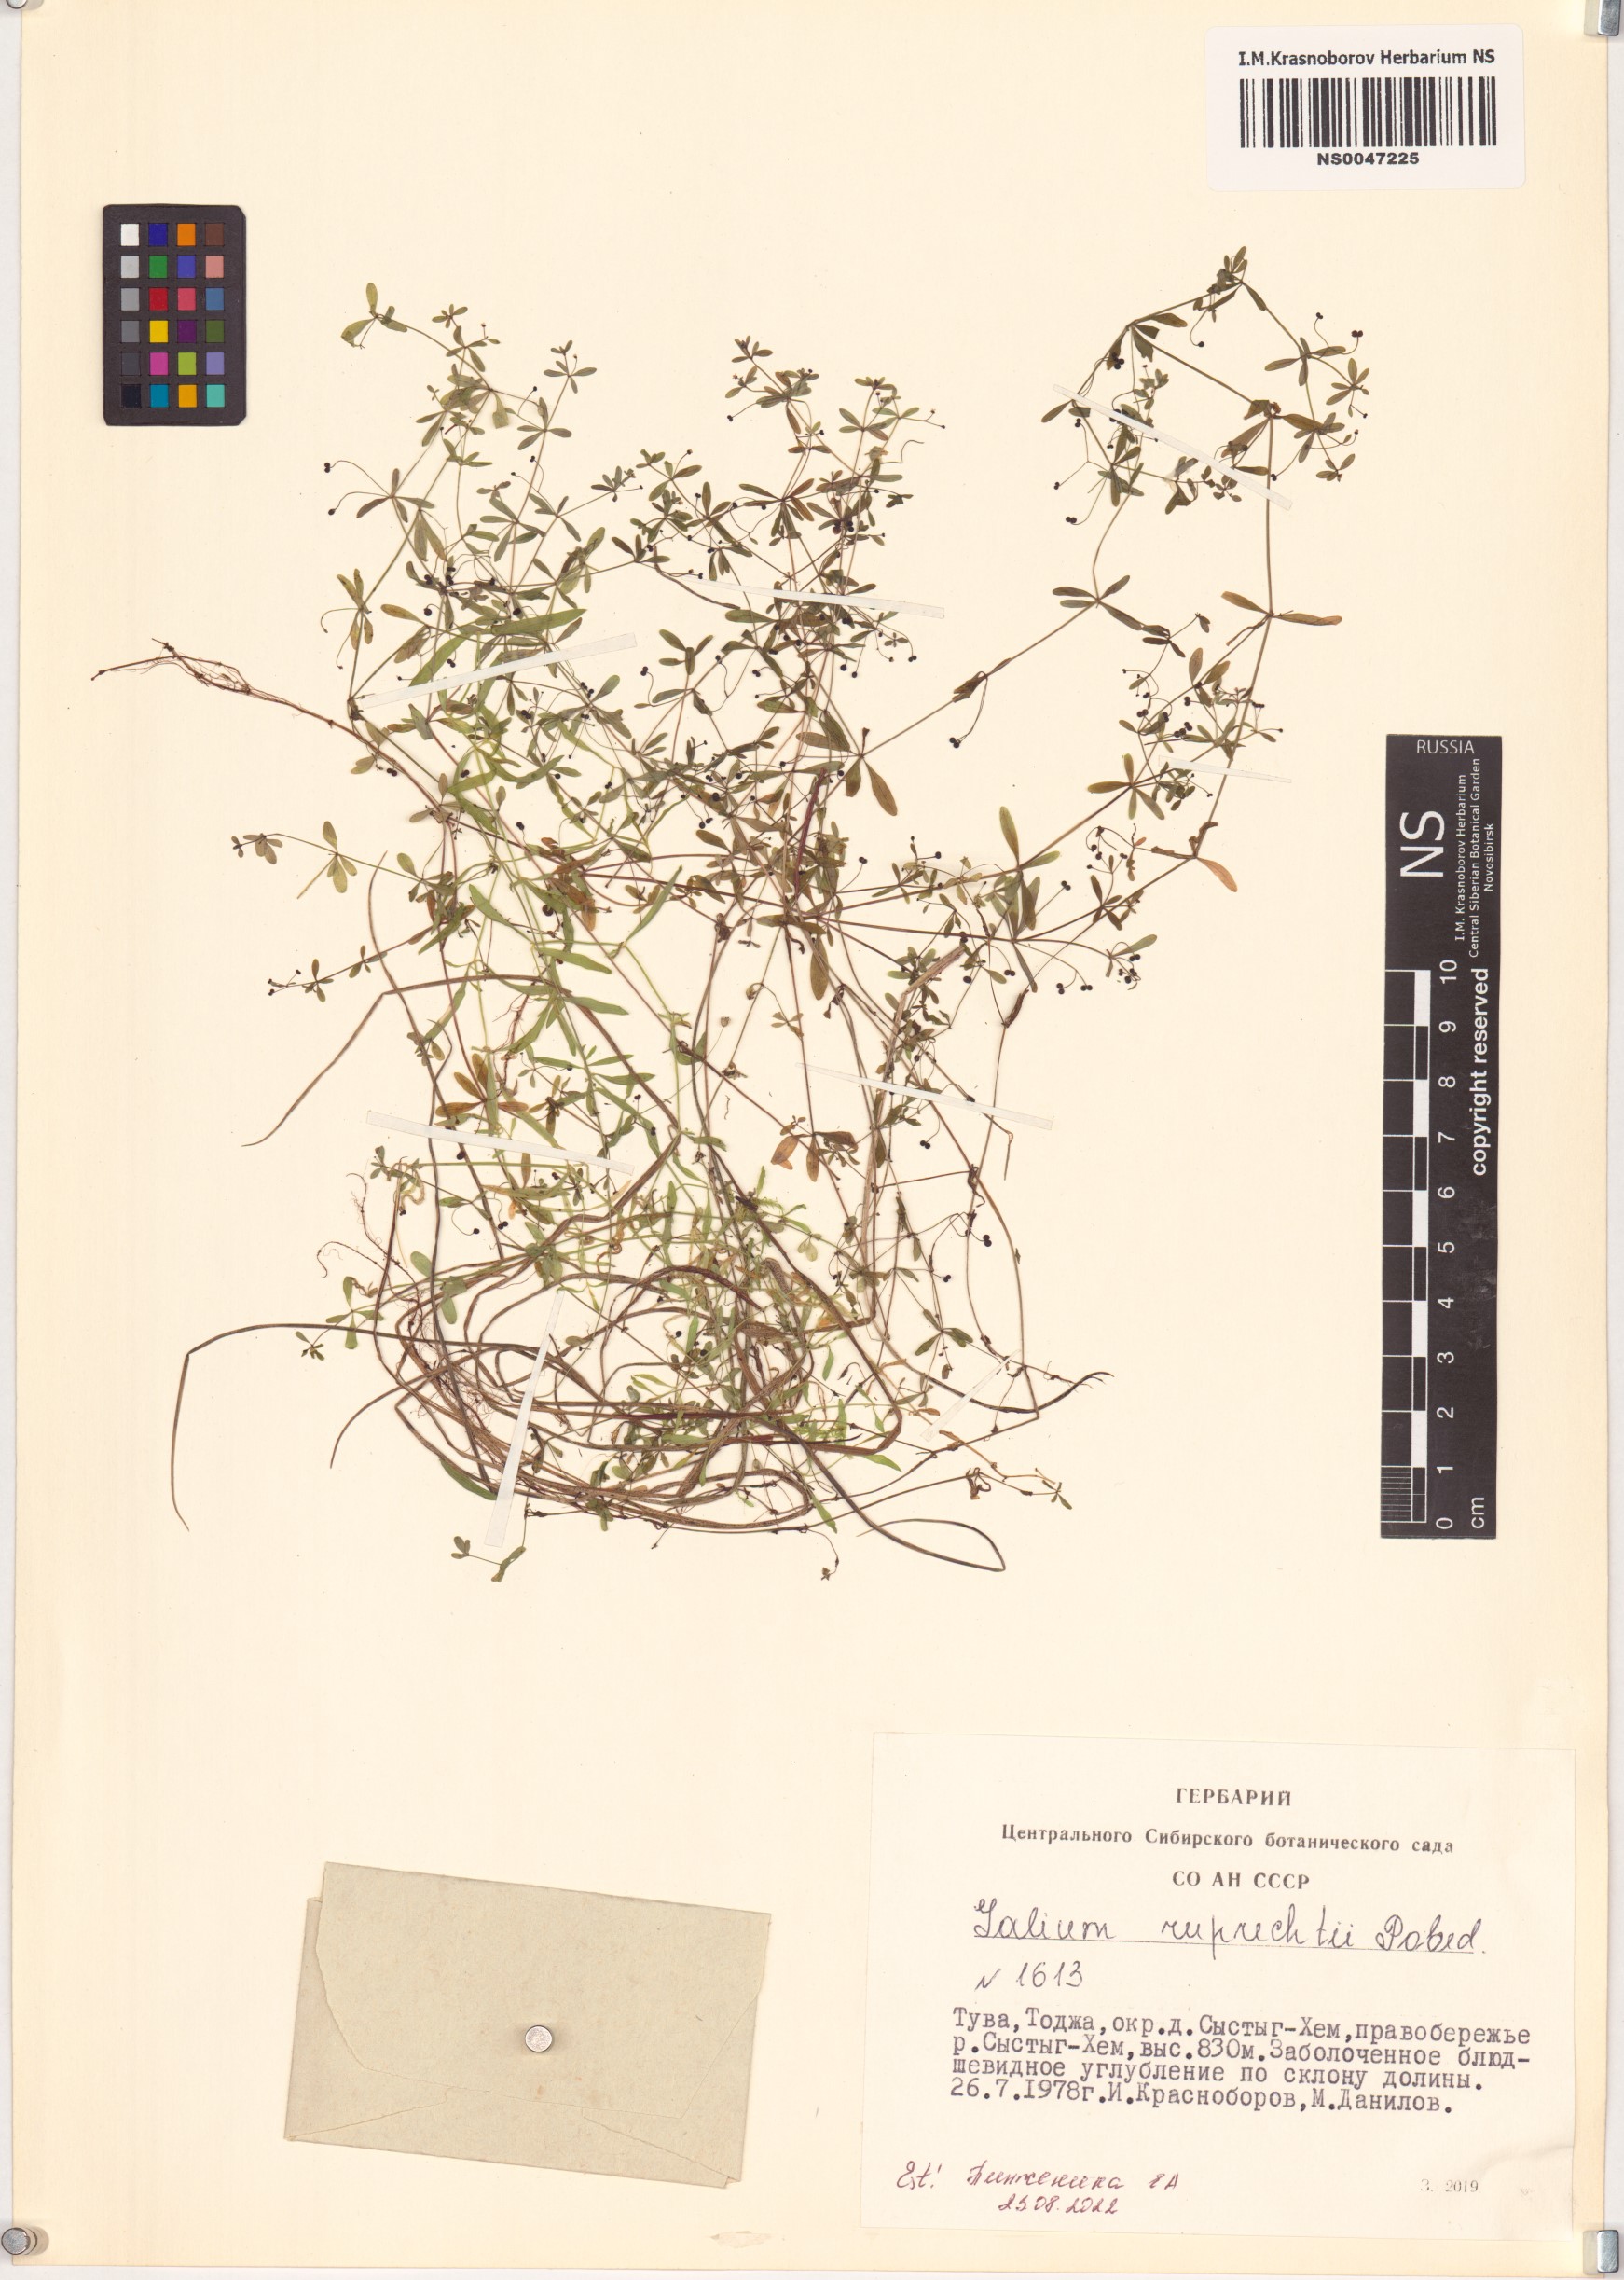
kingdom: Plantae
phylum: Tracheophyta
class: Magnoliopsida
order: Gentianales
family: Rubiaceae
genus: Galium
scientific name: Galium trifidum
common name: Small bedstraw
